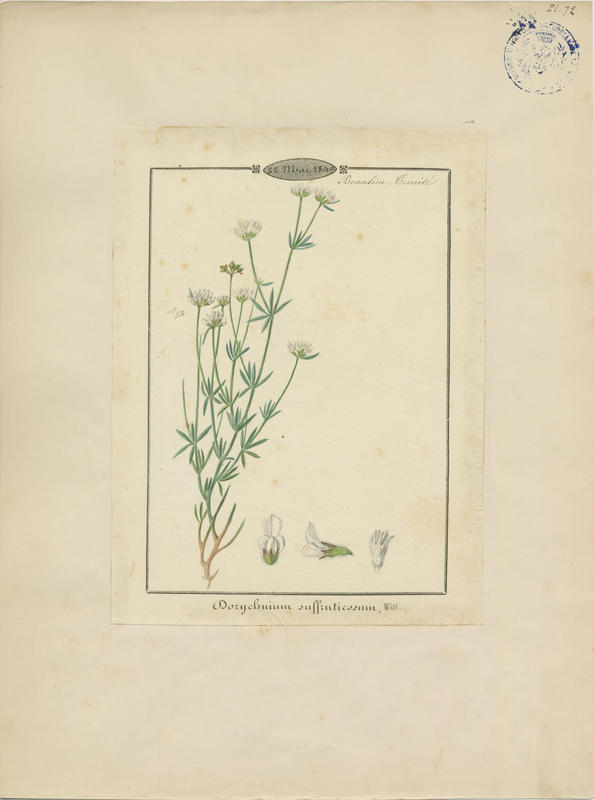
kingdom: Plantae
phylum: Tracheophyta
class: Magnoliopsida
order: Fabales
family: Fabaceae
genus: Lotus
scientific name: Lotus dorycnium
